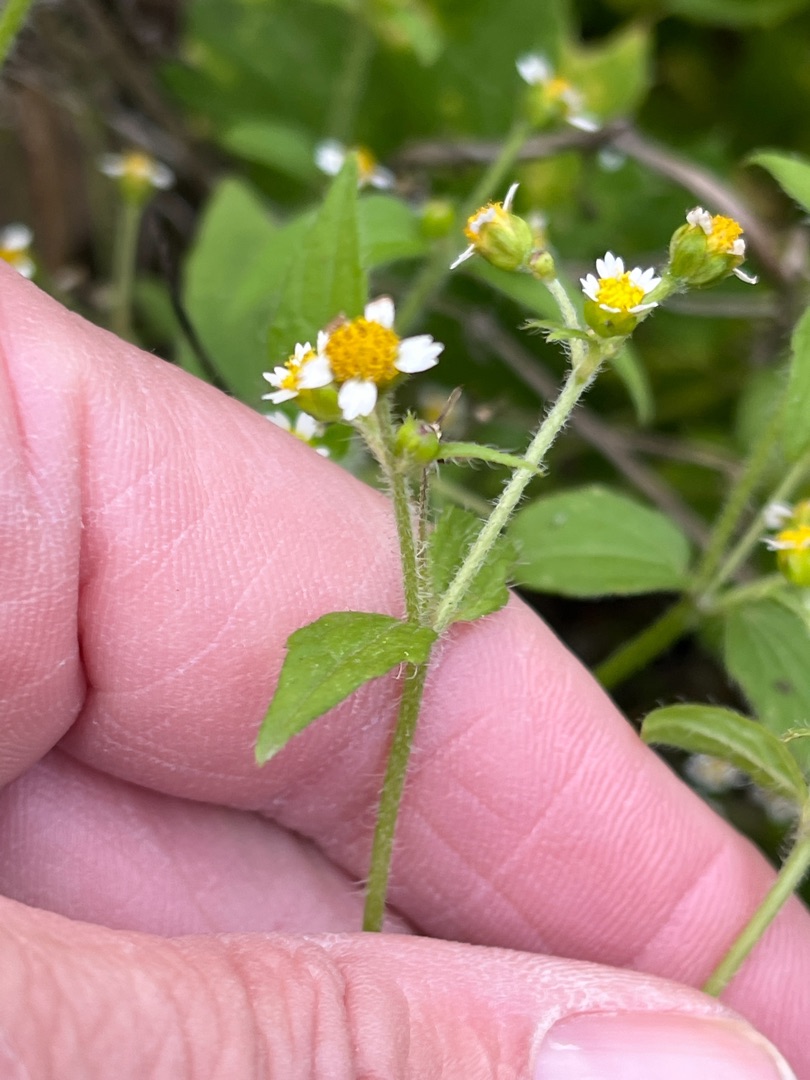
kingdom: Plantae
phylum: Tracheophyta
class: Magnoliopsida
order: Asterales
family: Asteraceae
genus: Galinsoga
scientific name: Galinsoga quadriradiata
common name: Kirtel-kortstråle
